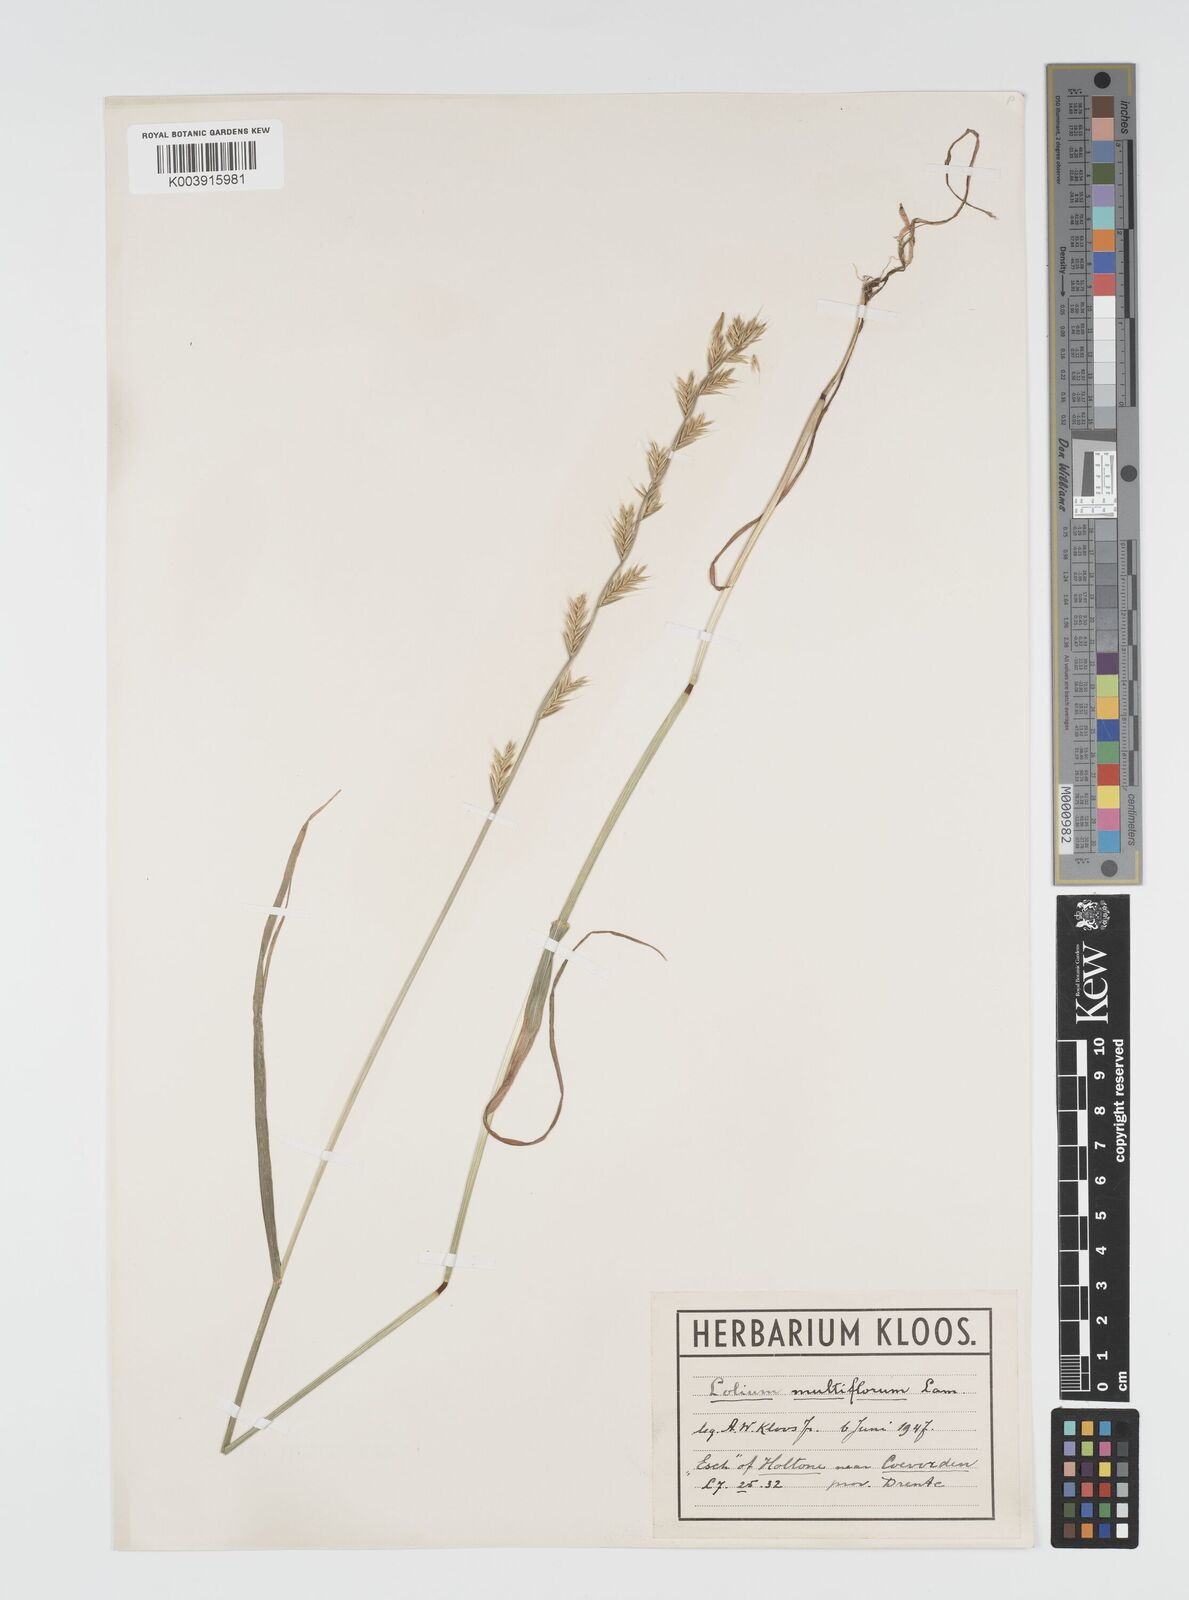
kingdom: Plantae
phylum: Tracheophyta
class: Liliopsida
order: Poales
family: Poaceae
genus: Lolium
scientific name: Lolium multiflorum
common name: Annual ryegrass
